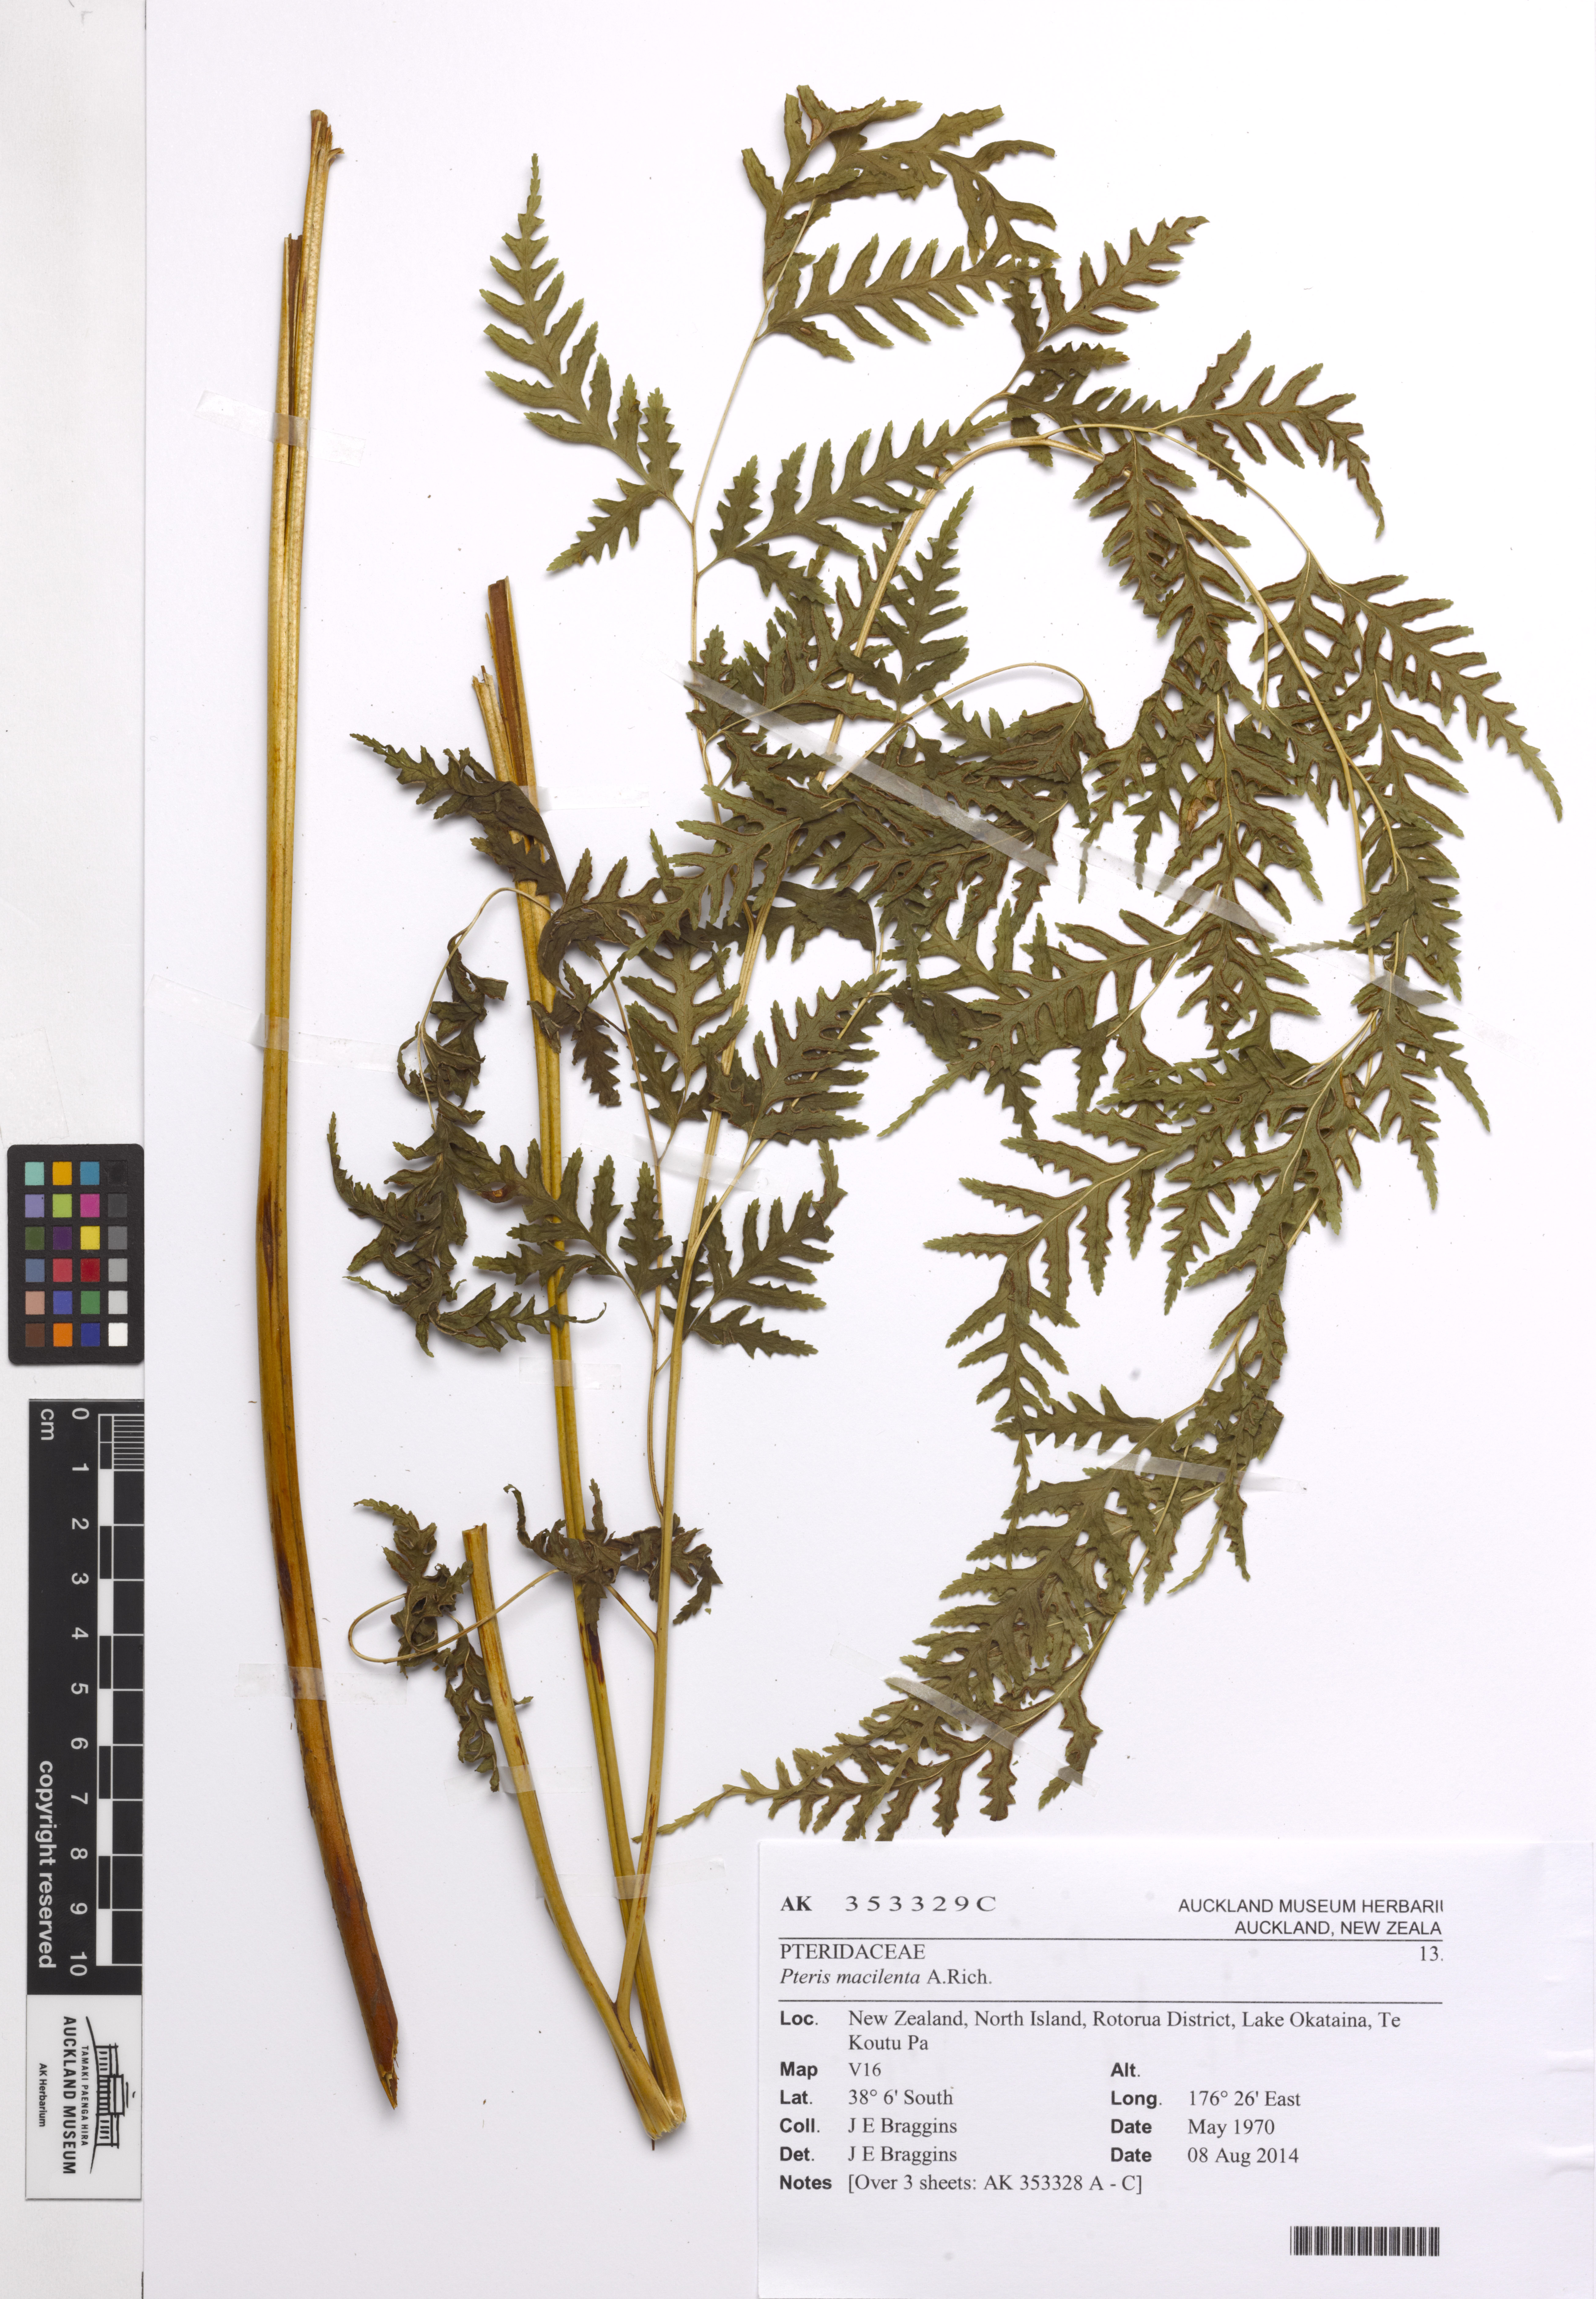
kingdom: Plantae
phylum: Tracheophyta
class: Polypodiopsida
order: Polypodiales
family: Pteridaceae
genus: Pteris
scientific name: Pteris macilenta
